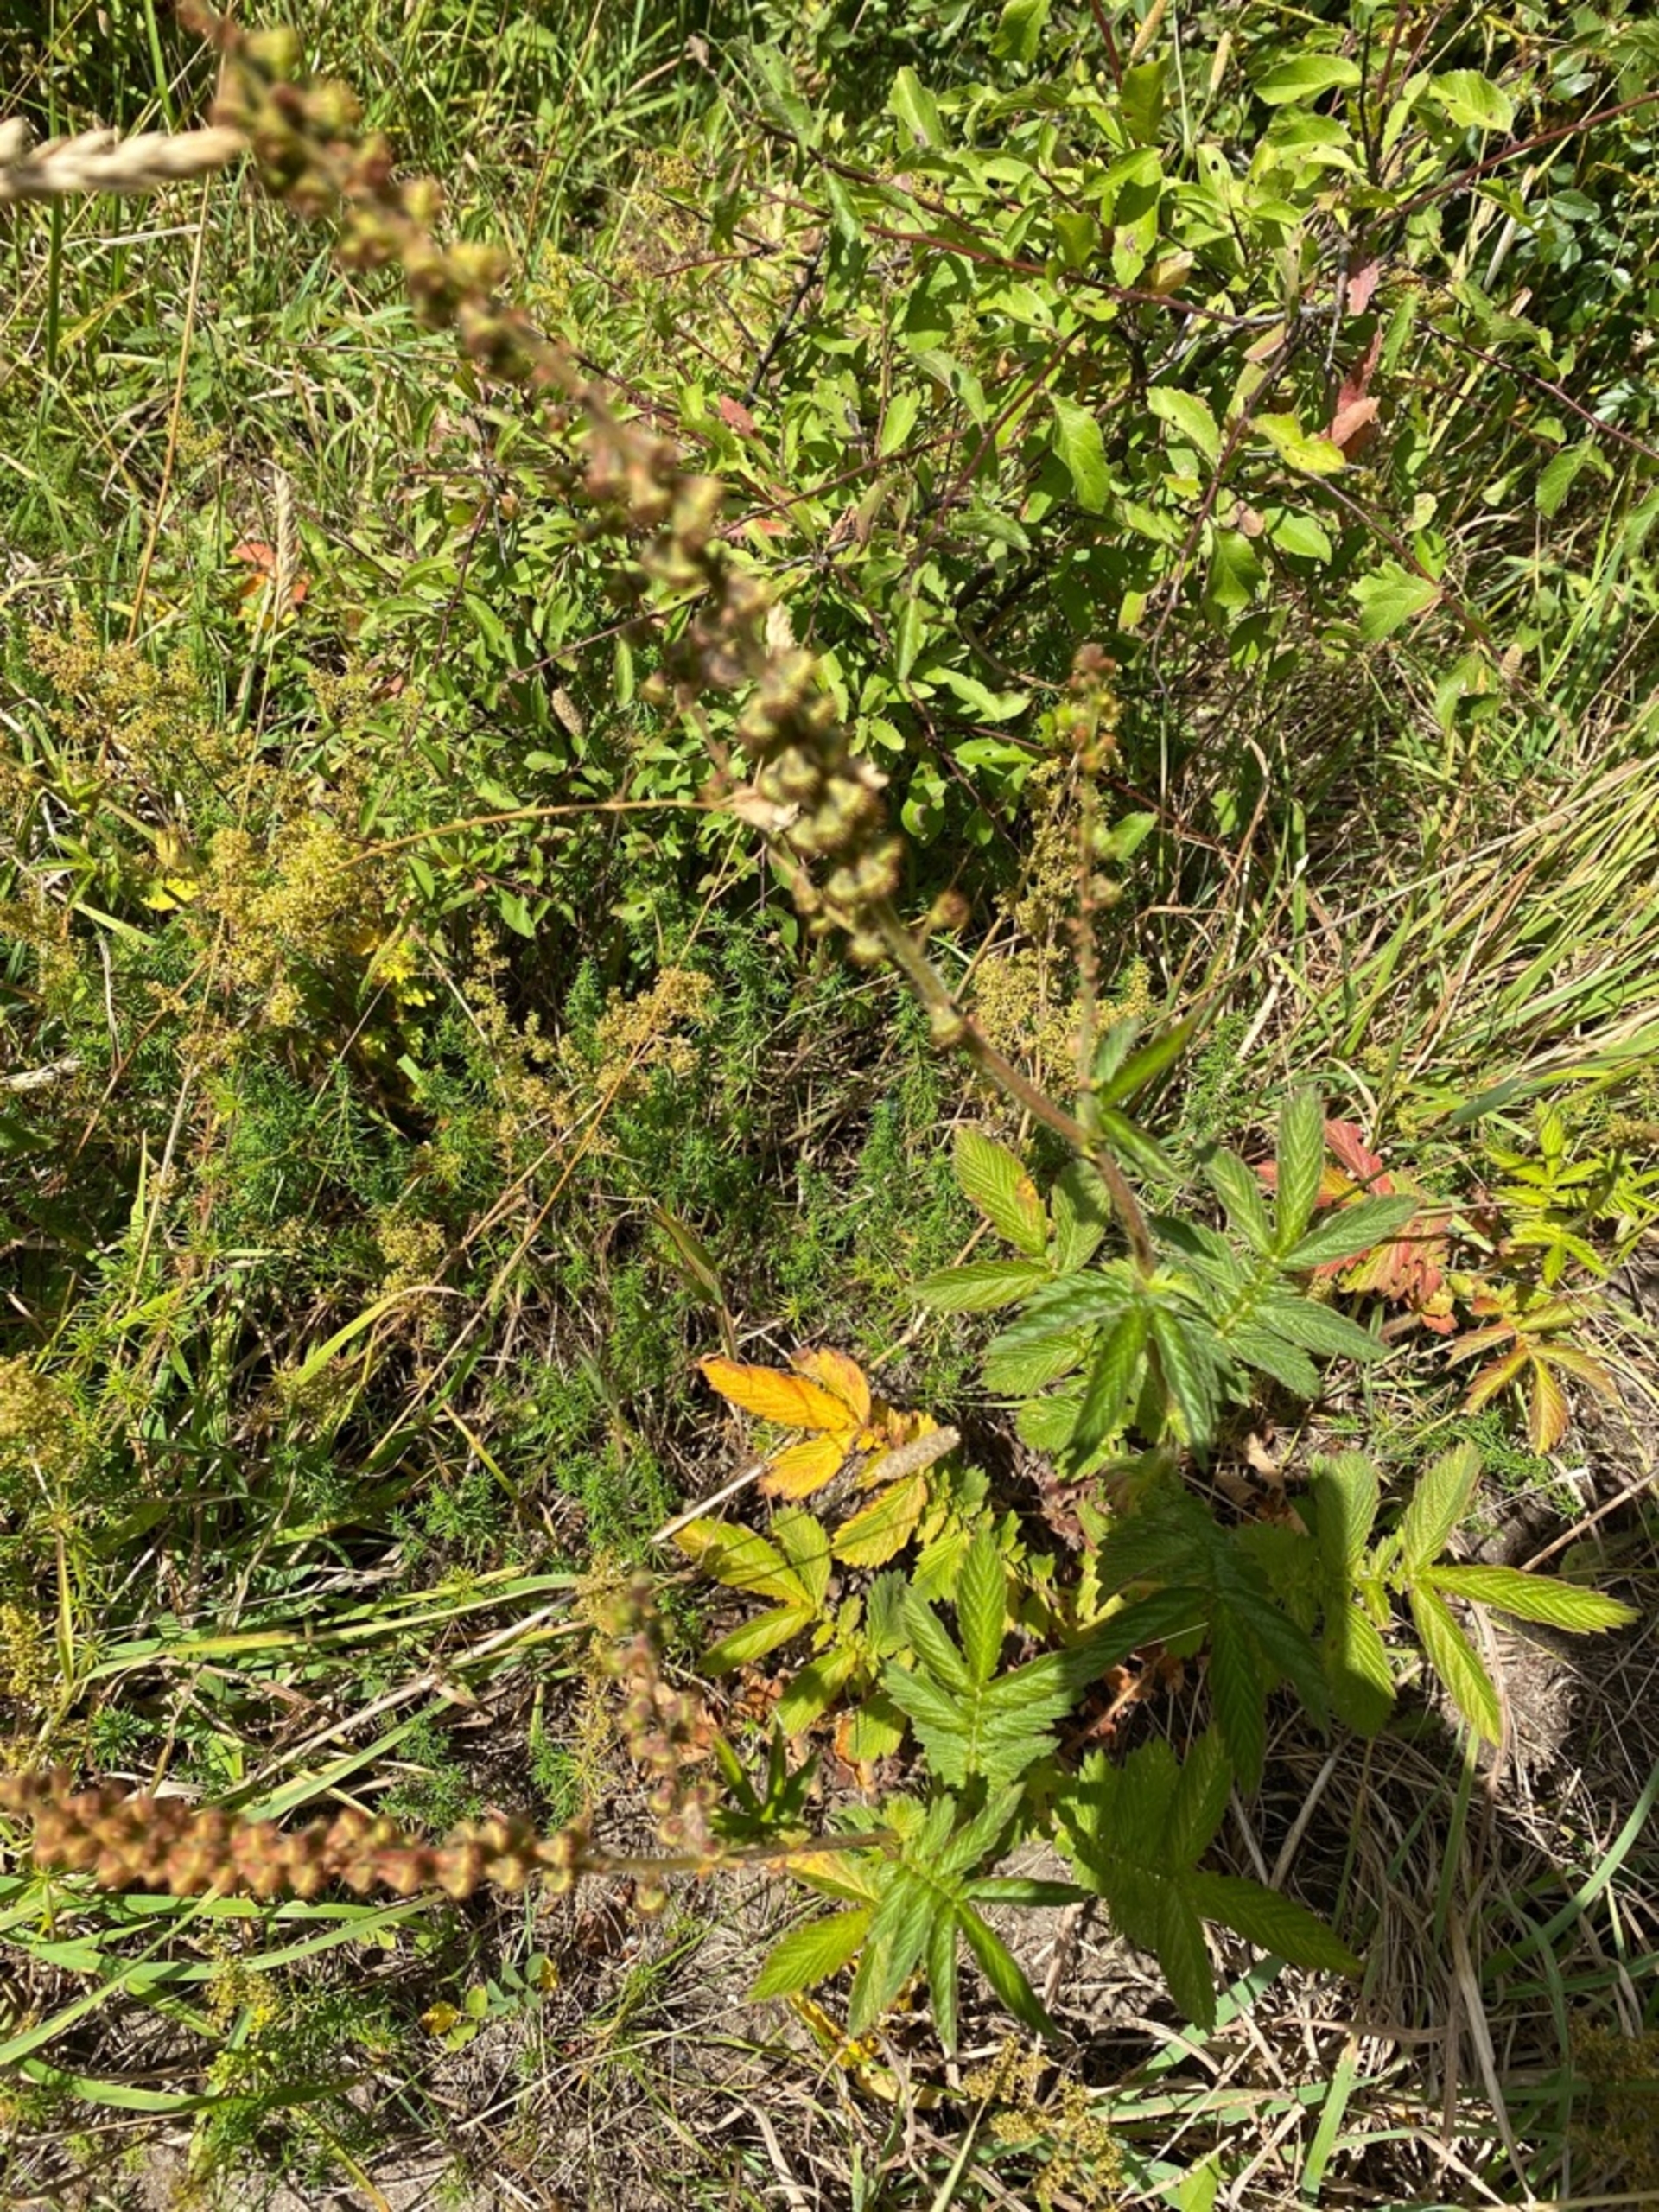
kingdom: Plantae
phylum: Tracheophyta
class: Magnoliopsida
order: Rosales
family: Rosaceae
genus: Agrimonia
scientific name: Agrimonia eupatoria
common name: Almindelig agermåne
